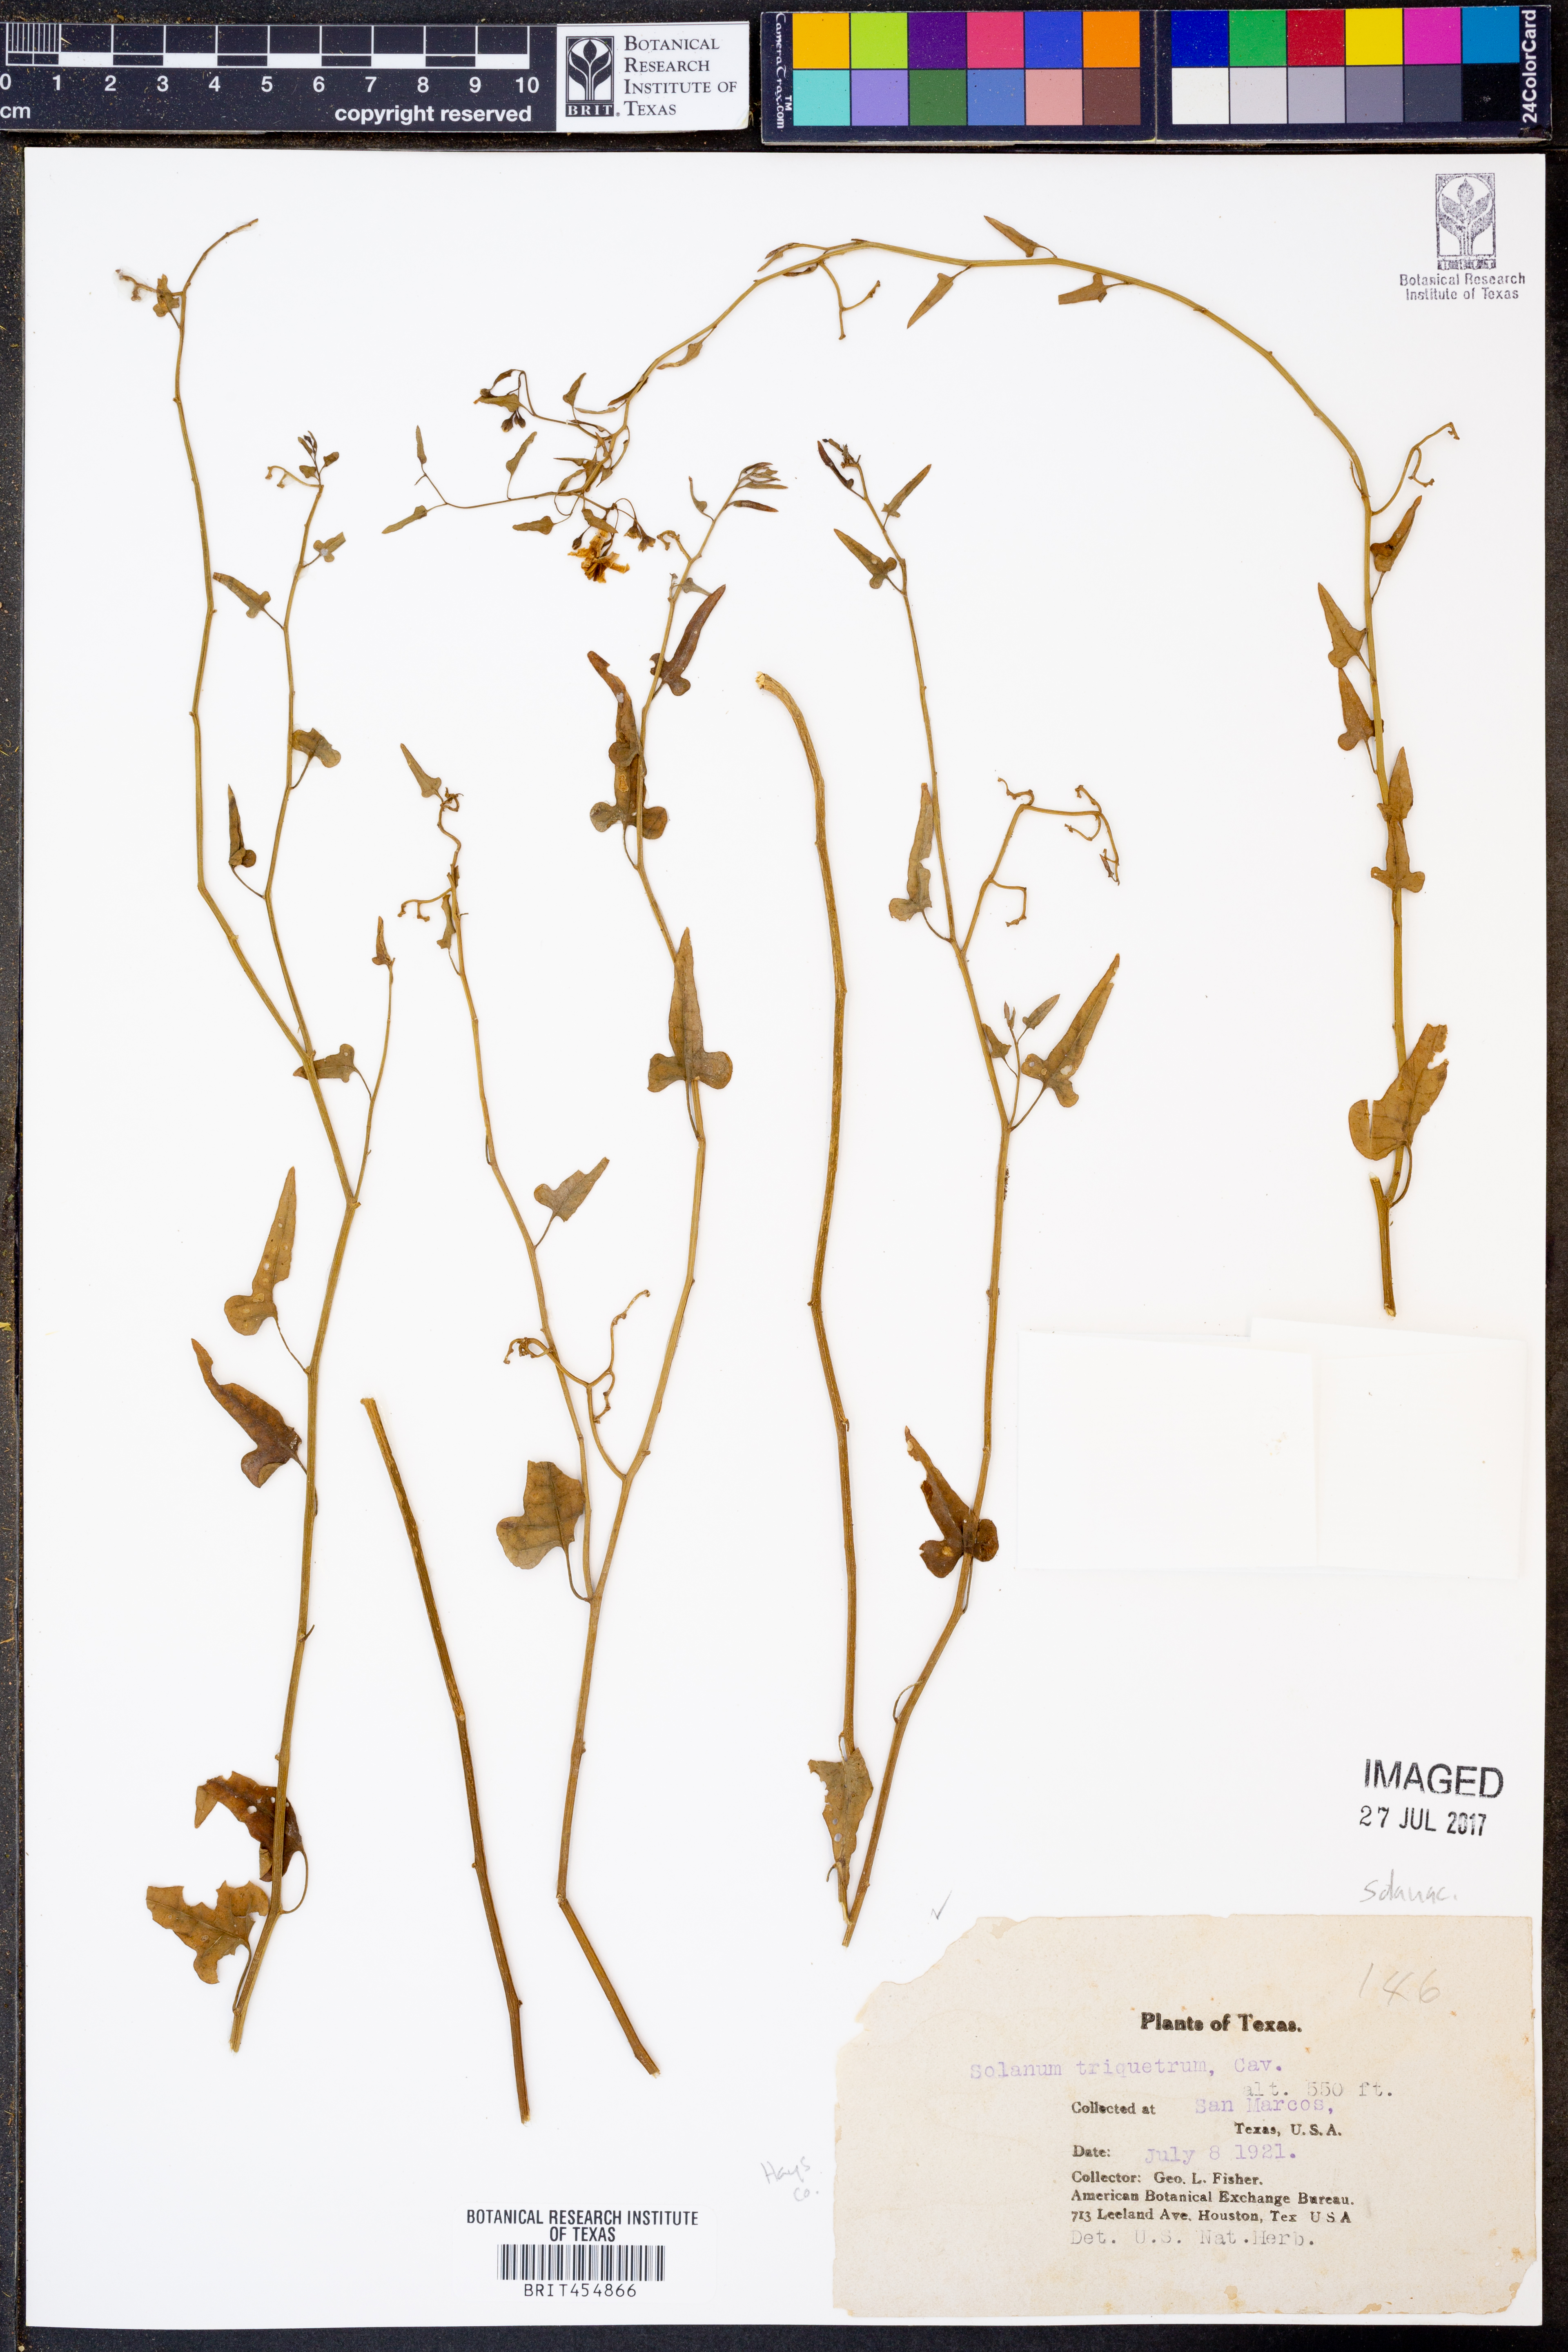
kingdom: Plantae
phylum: Tracheophyta
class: Magnoliopsida
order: Solanales
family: Solanaceae
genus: Solanum
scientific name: Solanum triquetrum
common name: Texas nightshade
